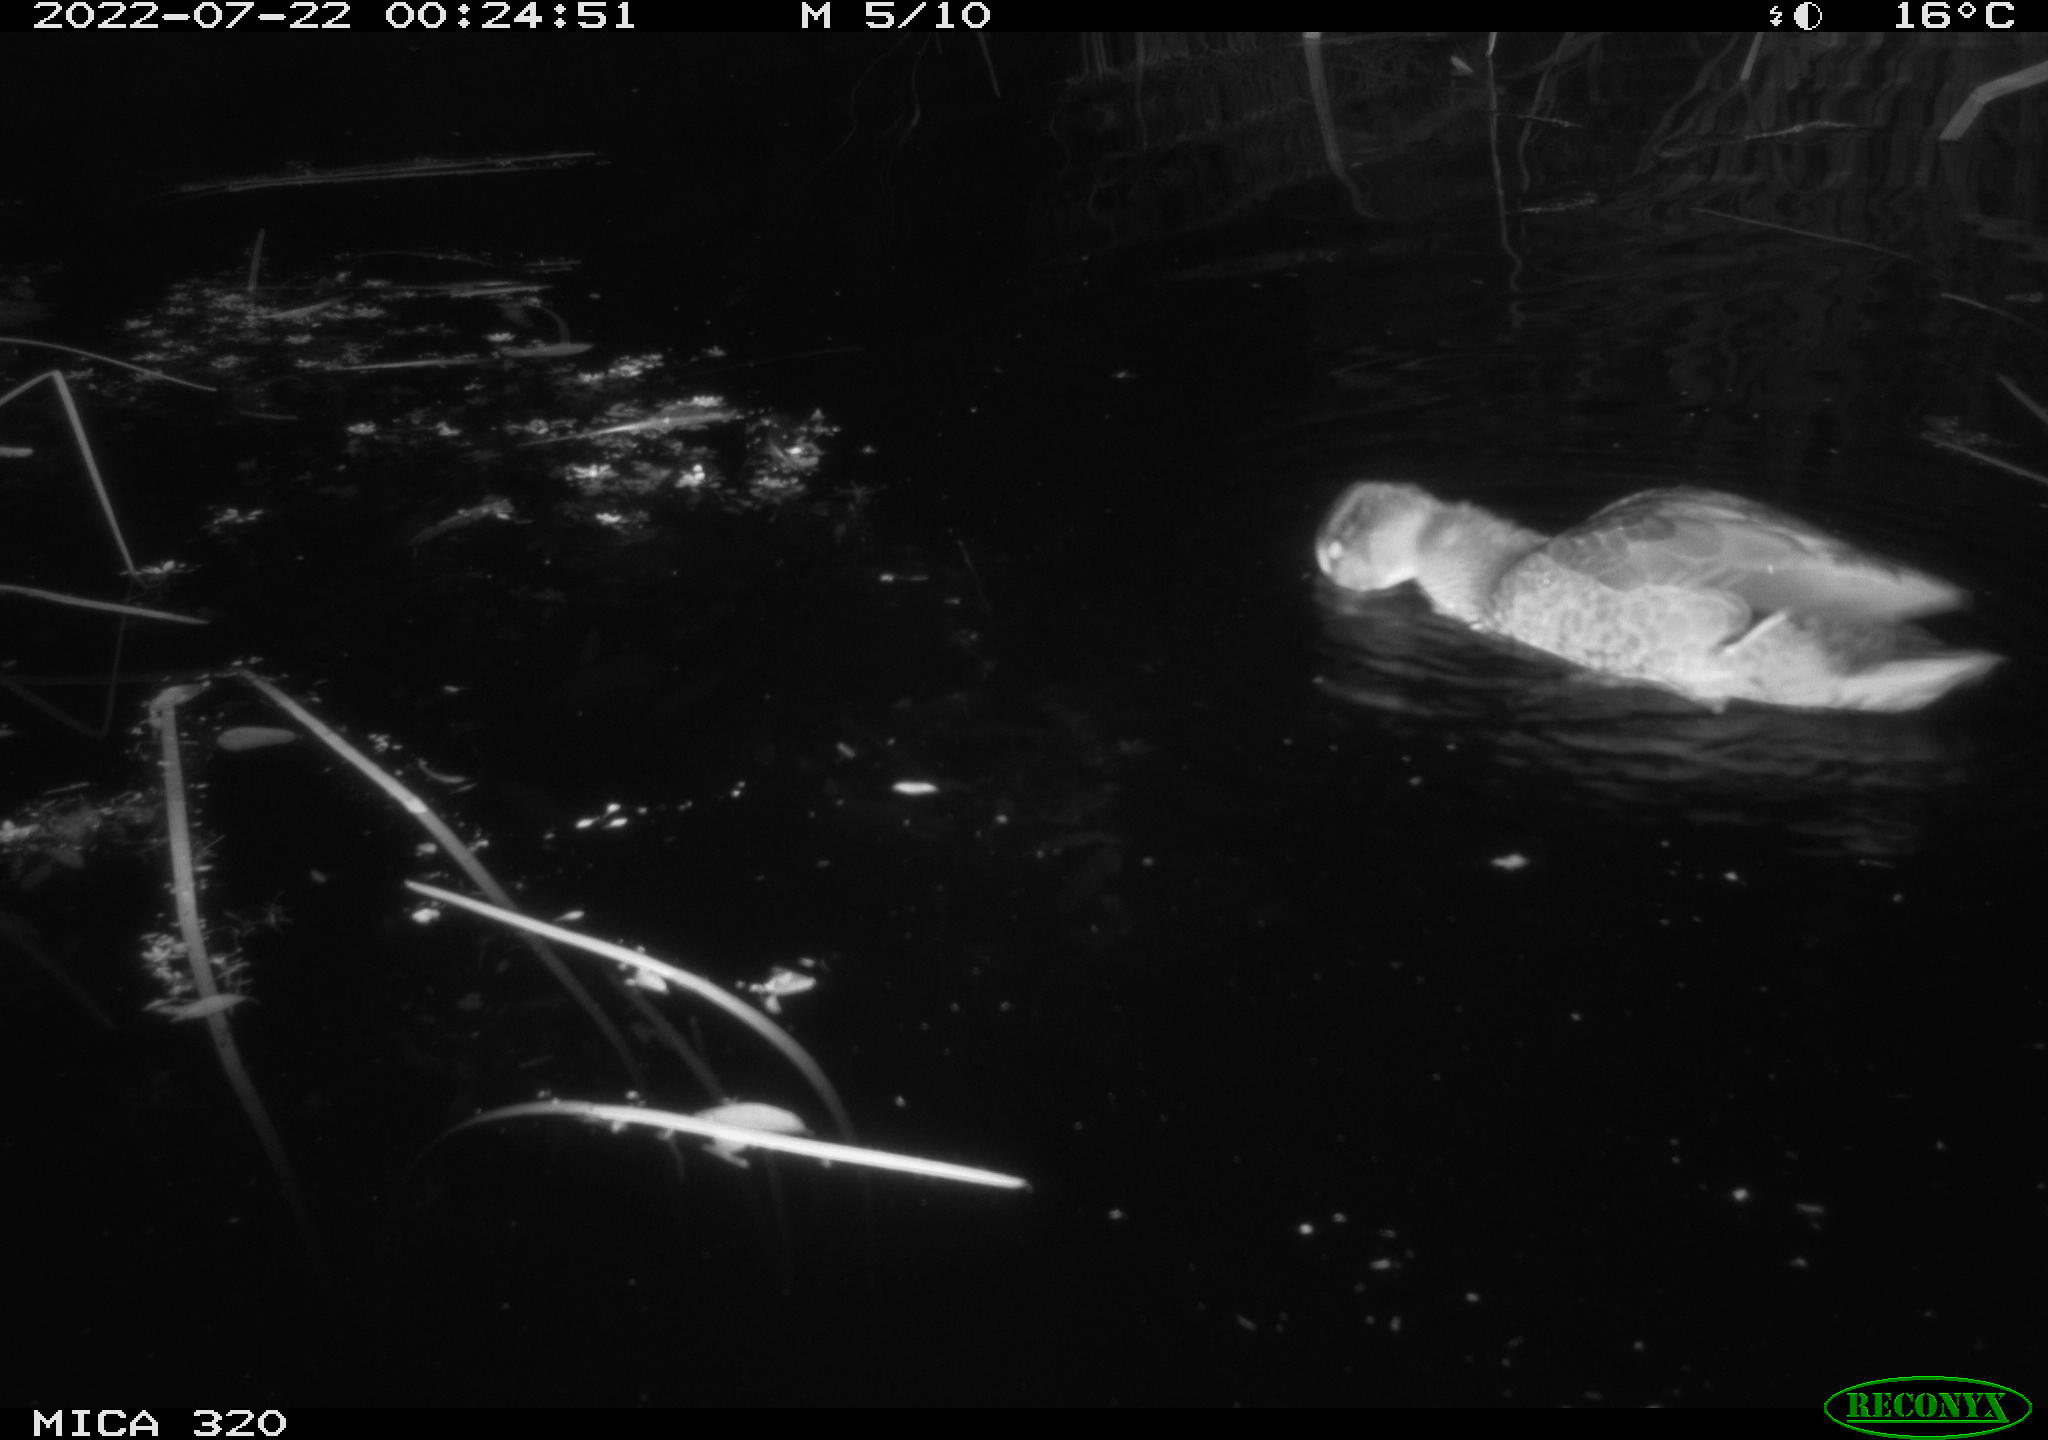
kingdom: Animalia
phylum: Chordata
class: Aves
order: Anseriformes
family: Anatidae
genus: Anas
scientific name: Anas platyrhynchos
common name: Mallard
